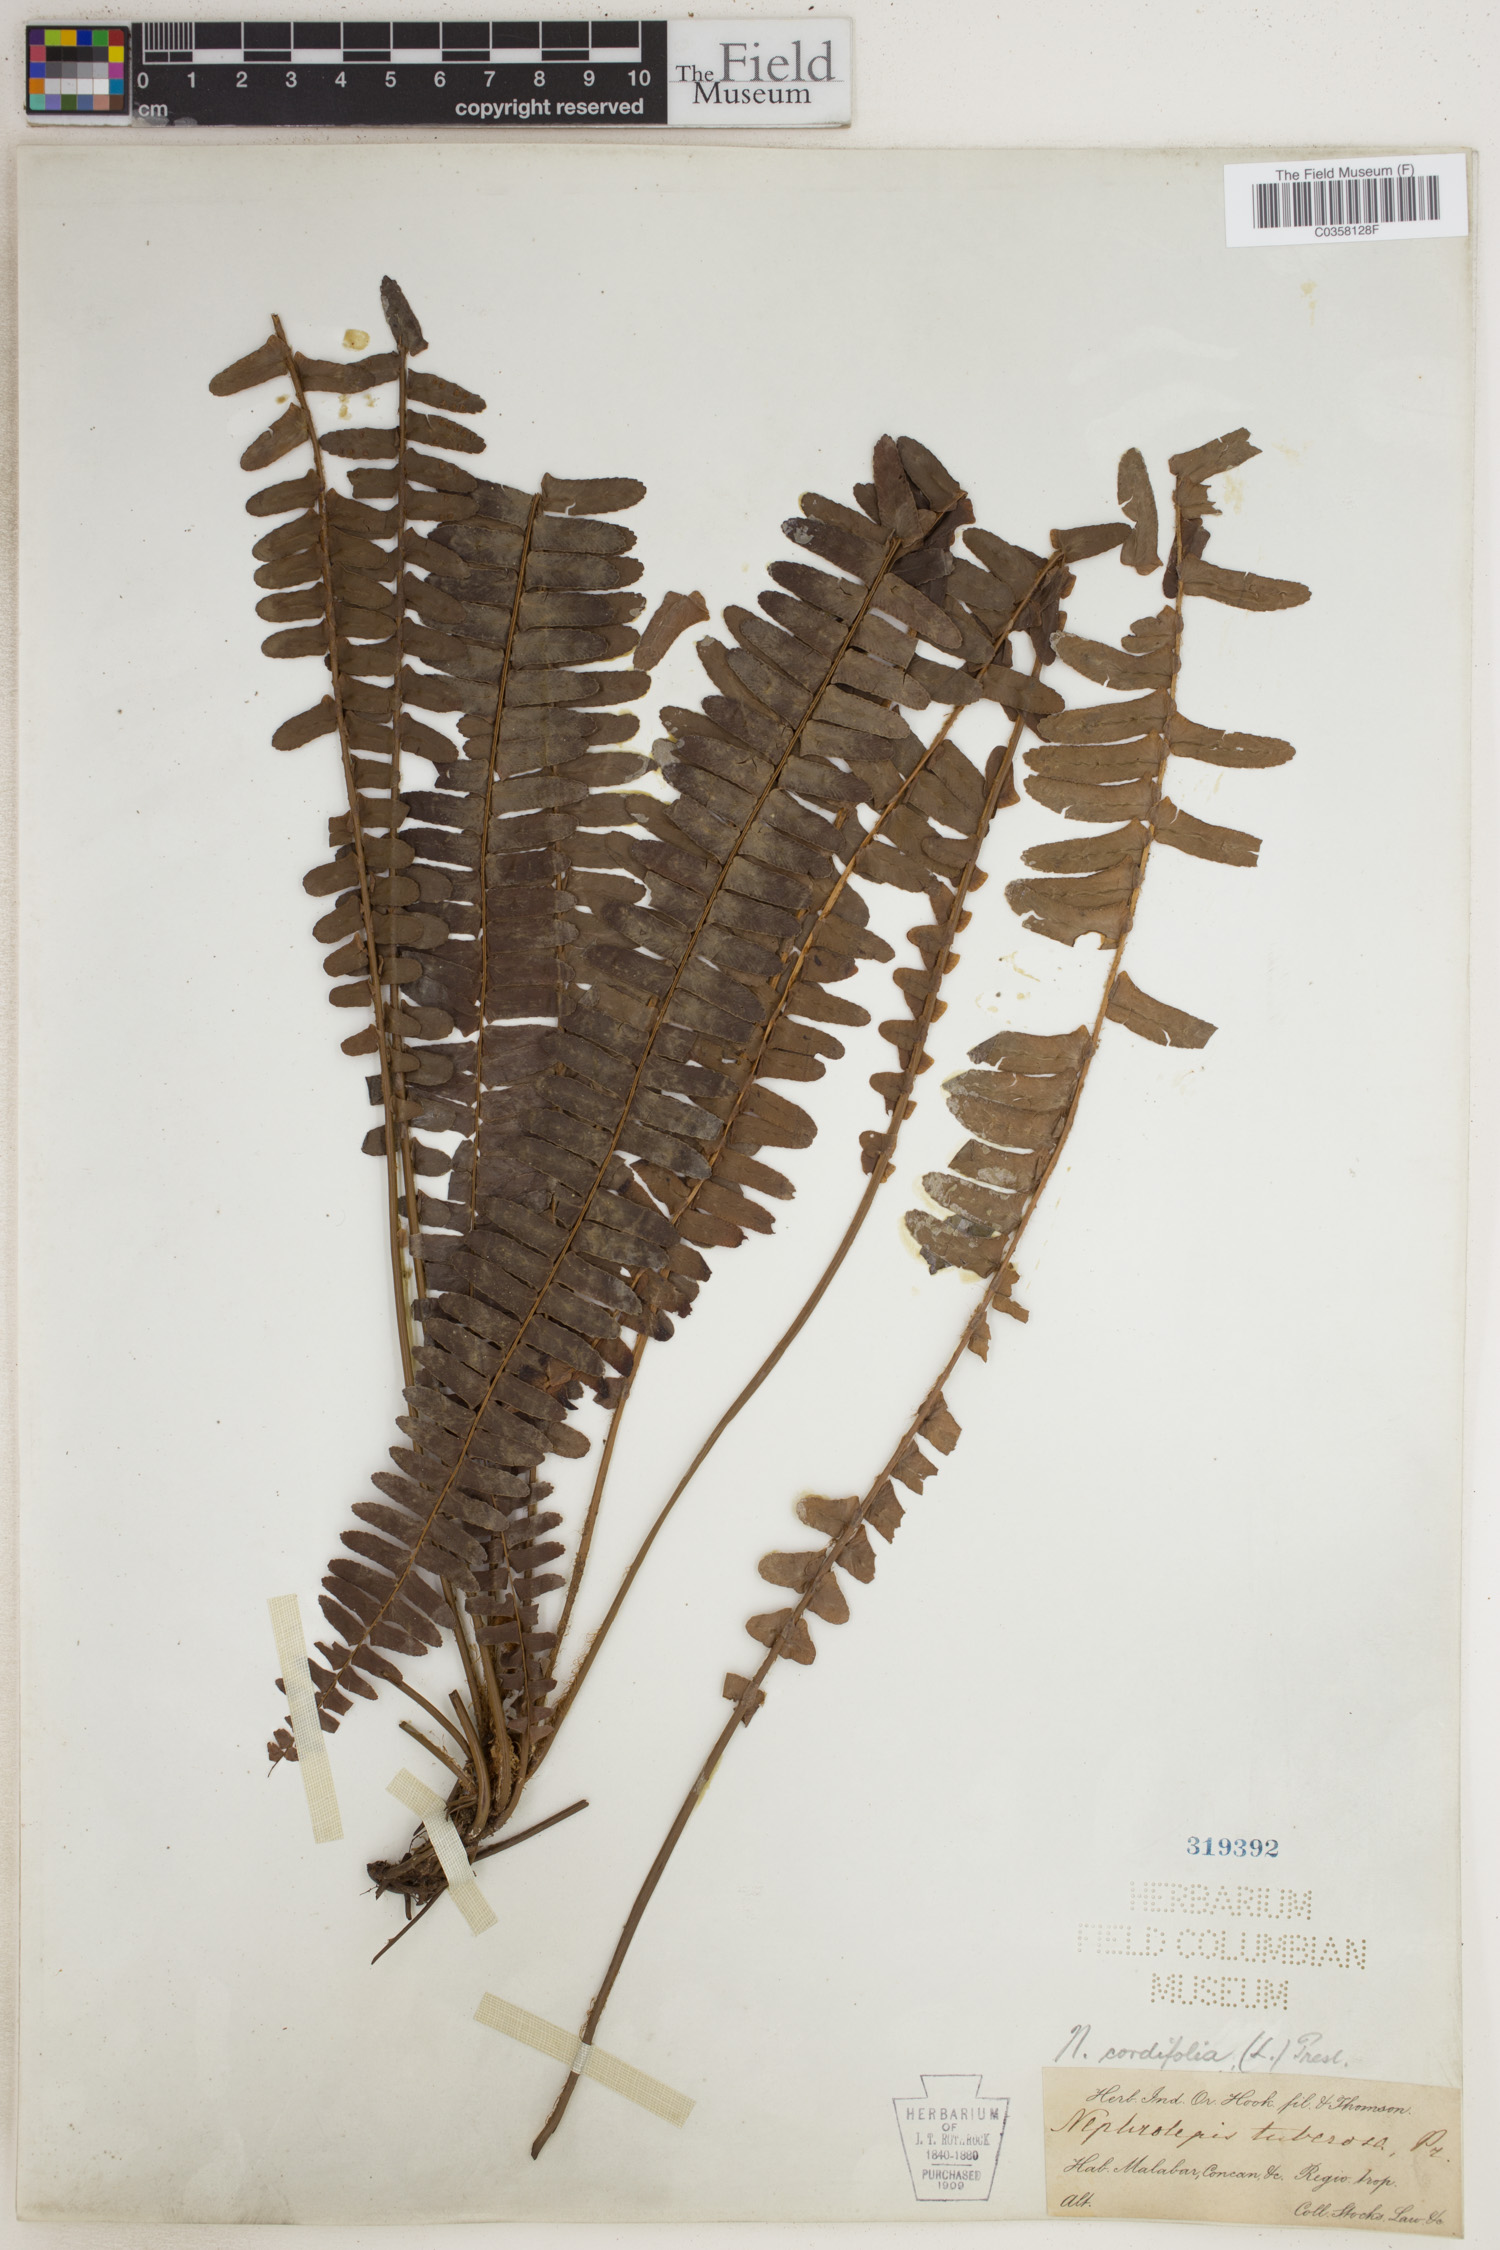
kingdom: Plantae
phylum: Tracheophyta
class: Polypodiopsida
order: Polypodiales
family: Nephrolepidaceae
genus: Nephrolepis
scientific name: Nephrolepis cordifolia
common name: Narrow swordfern
